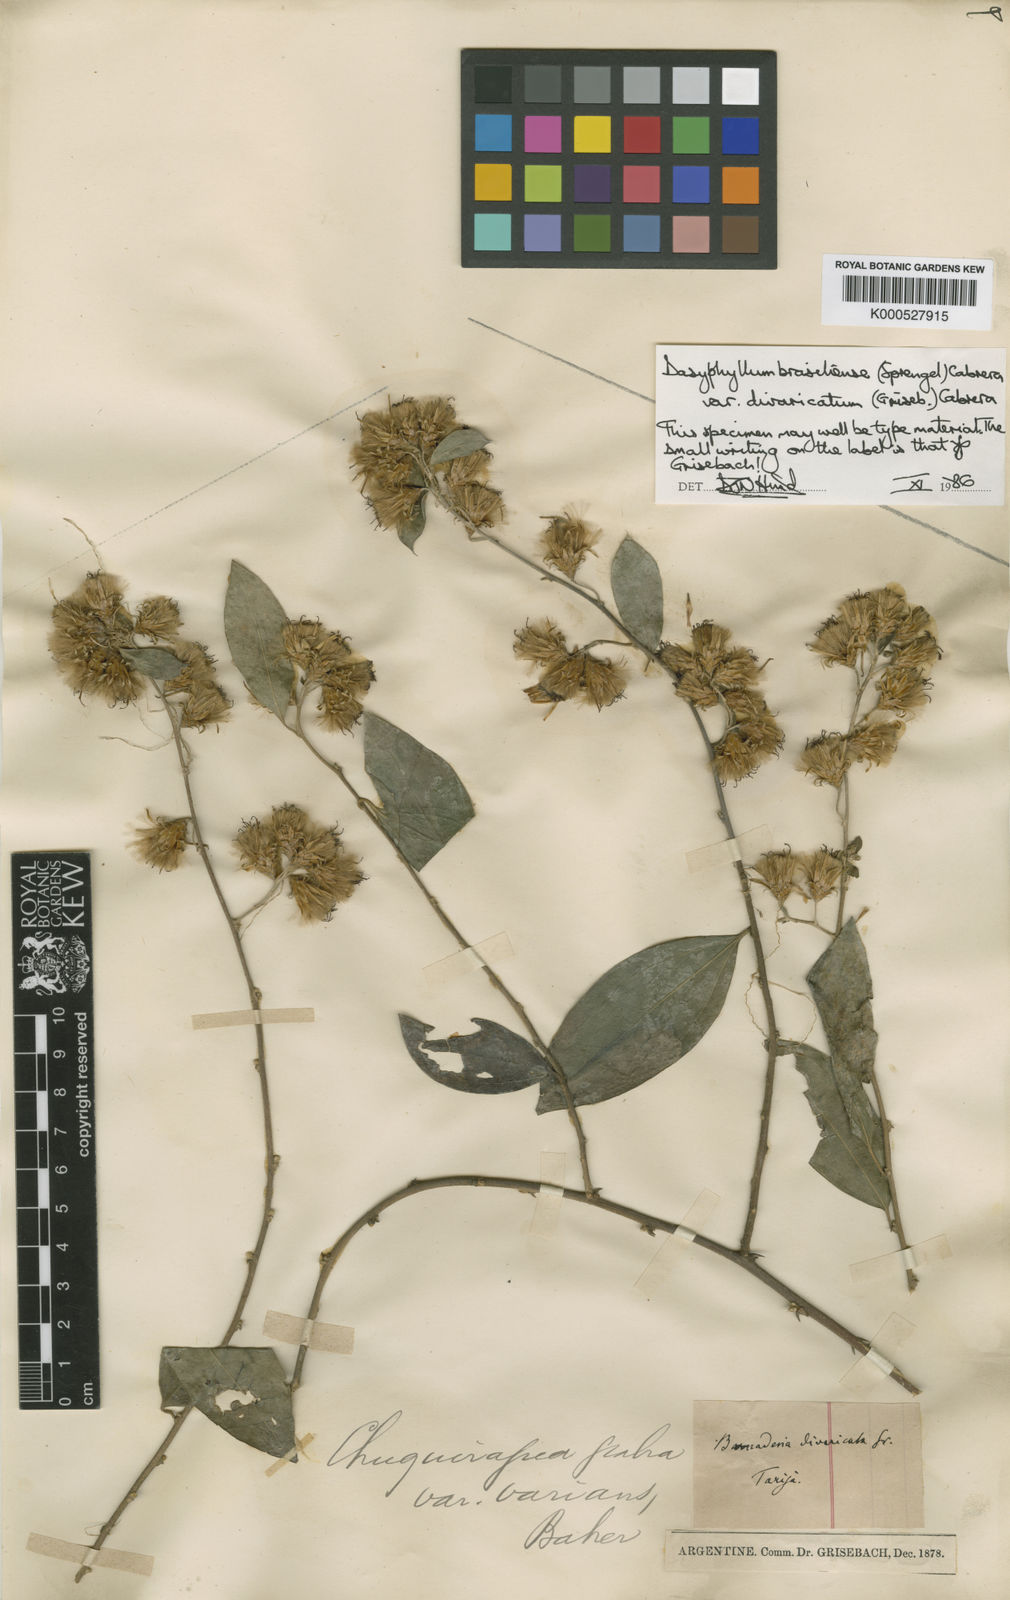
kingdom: Plantae
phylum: Tracheophyta
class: Magnoliopsida
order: Asterales
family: Asteraceae
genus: Dasyphyllum
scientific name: Dasyphyllum brasiliense
